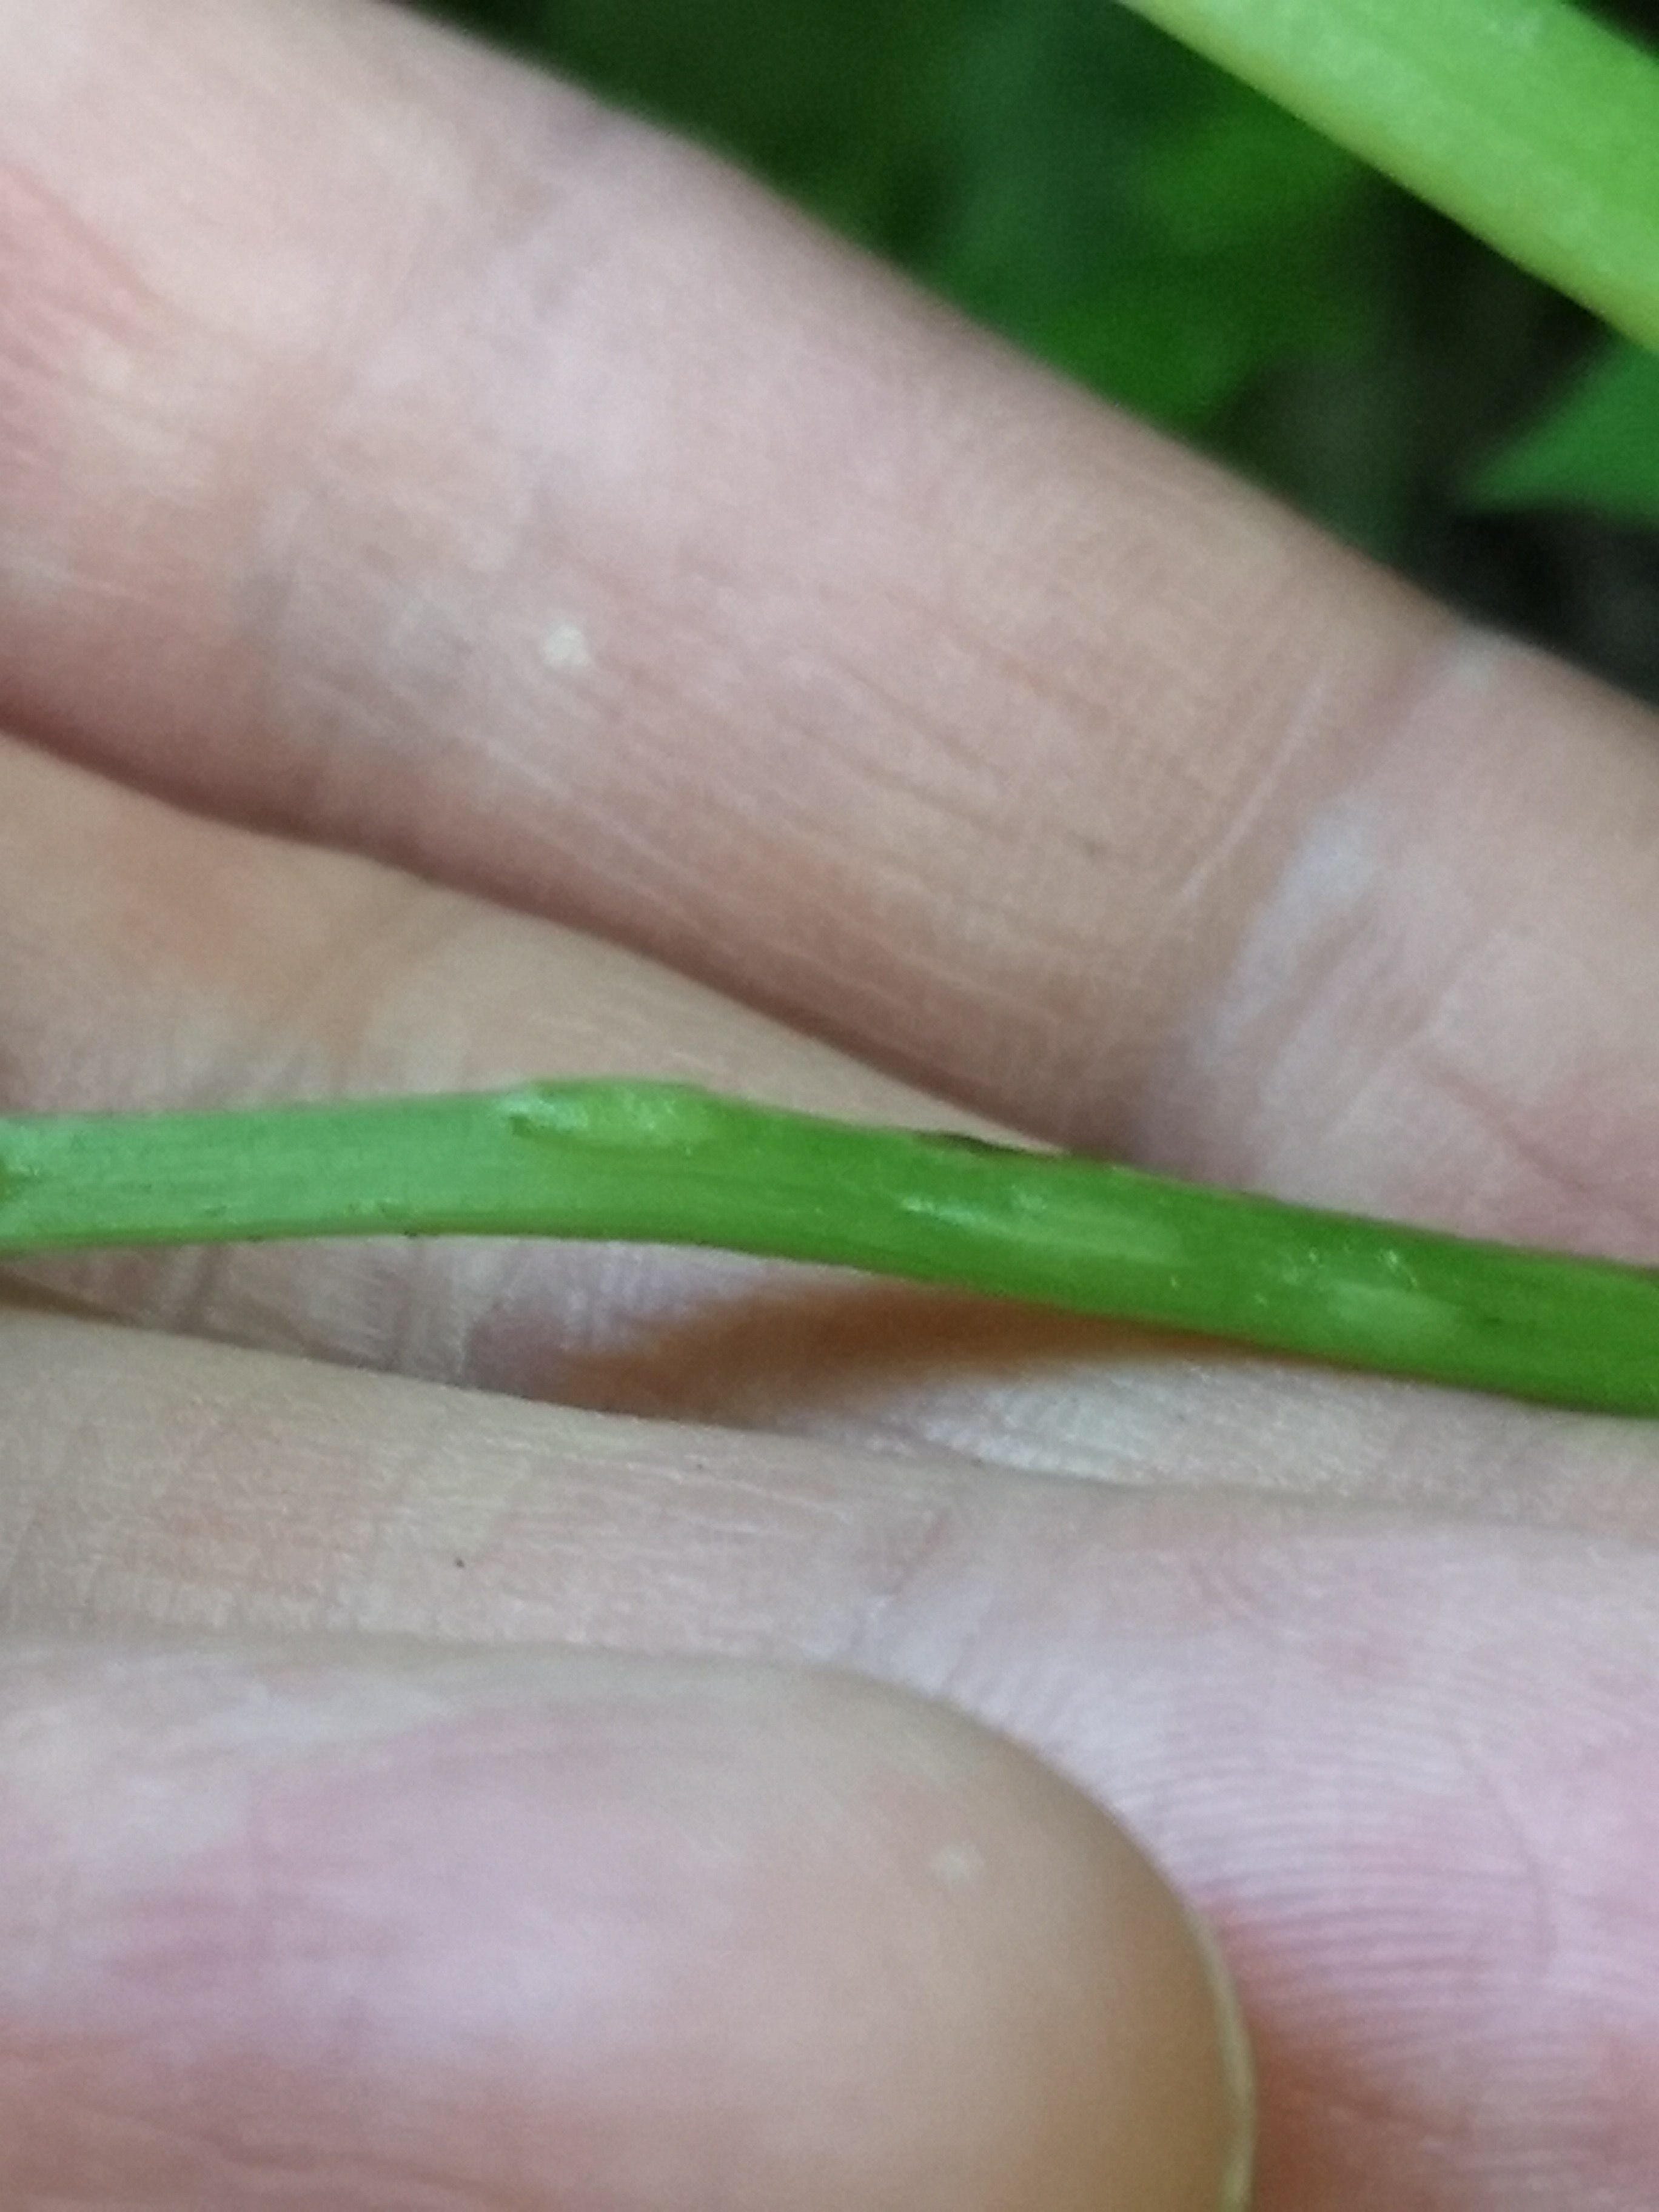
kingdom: Fungi
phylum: Ascomycota
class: Taphrinomycetes
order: Taphrinales
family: Taphrinaceae
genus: Protomyces
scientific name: Protomyces macrosporus
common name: skvalderkål-vablesæk
